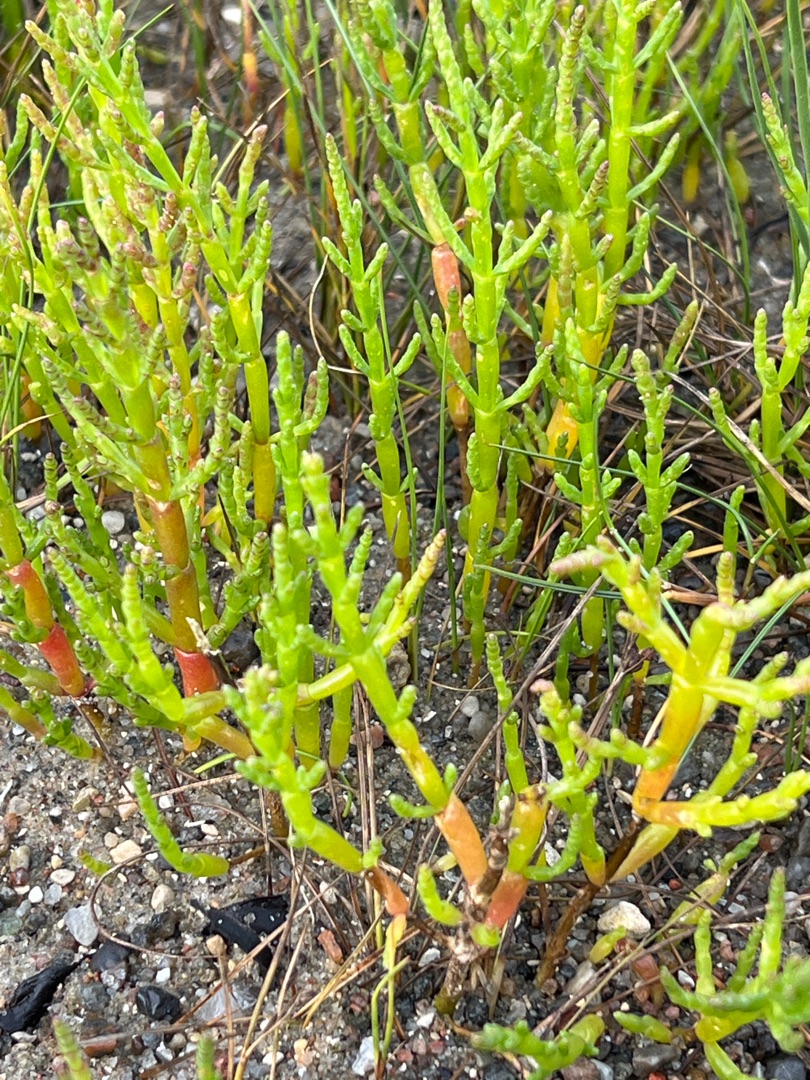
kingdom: Plantae
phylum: Tracheophyta
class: Magnoliopsida
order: Caryophyllales
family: Amaranthaceae
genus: Salicornia
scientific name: Salicornia europaea
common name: Almindelig salturt
